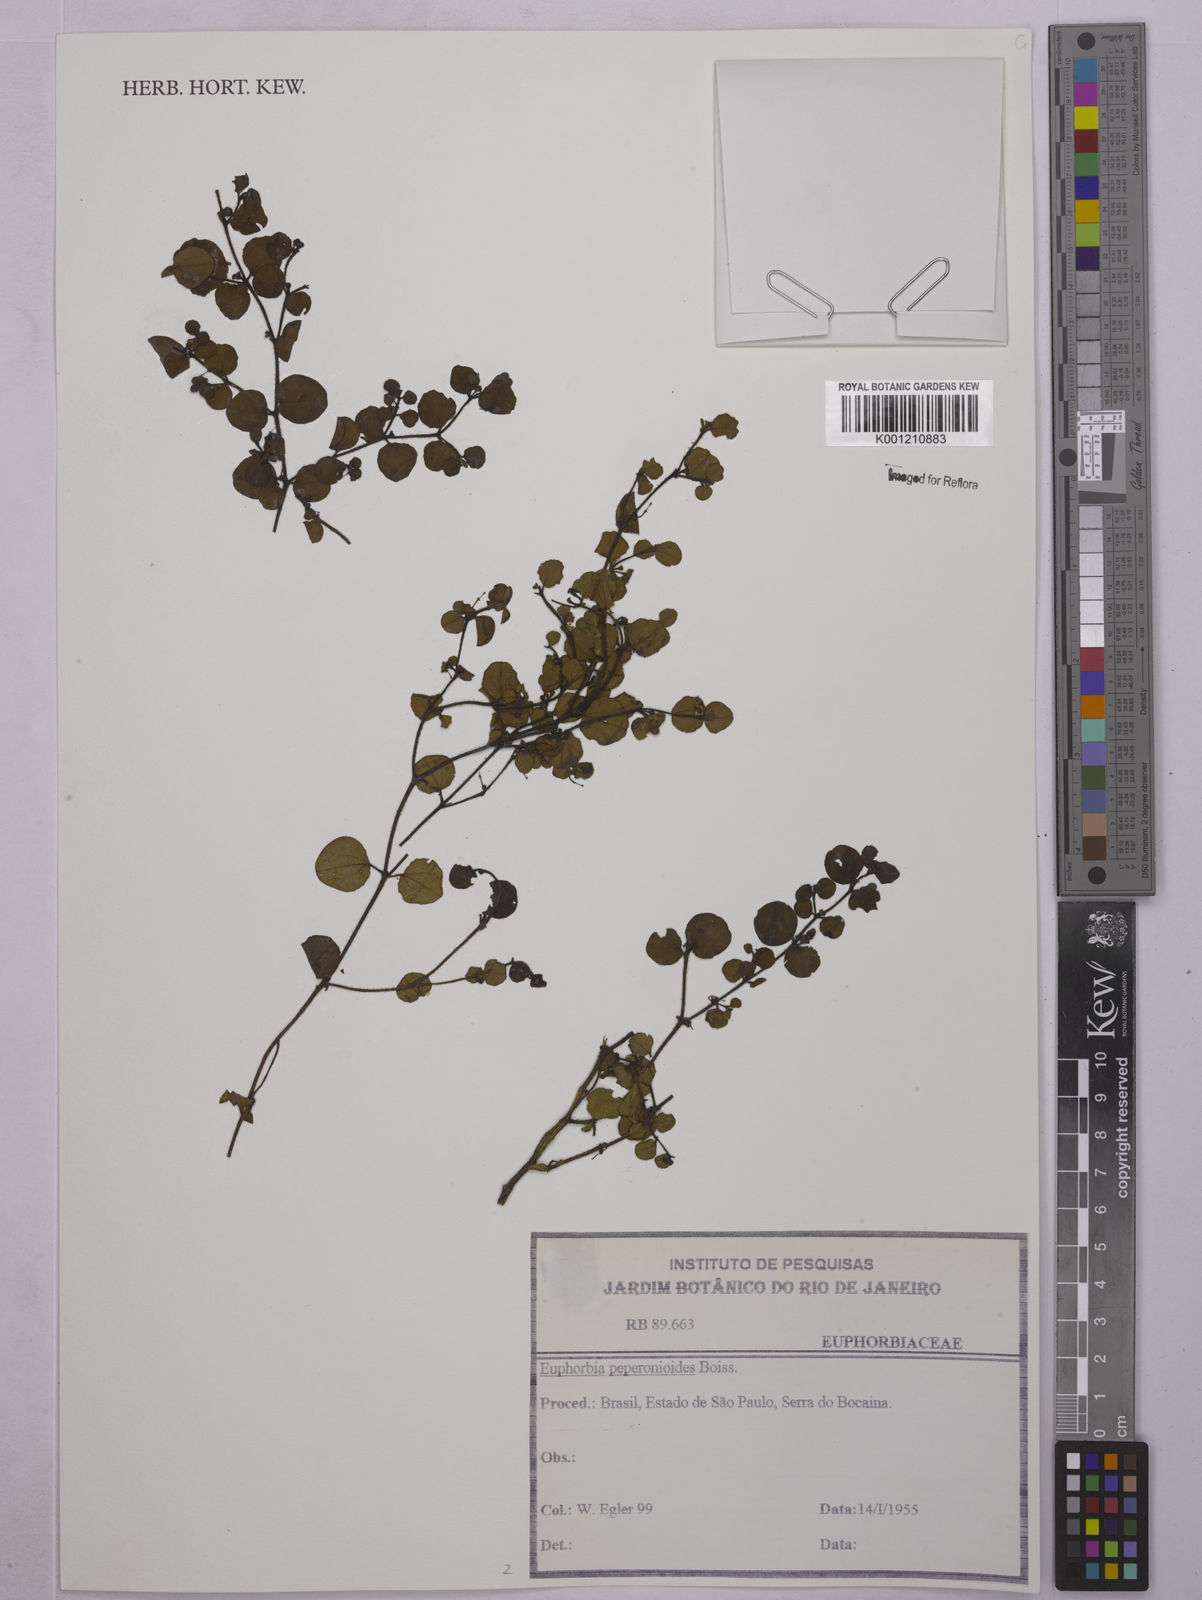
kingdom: Plantae
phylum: Tracheophyta
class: Magnoliopsida
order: Malpighiales
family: Euphorbiaceae
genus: Euphorbia
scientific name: Euphorbia peperomioides
